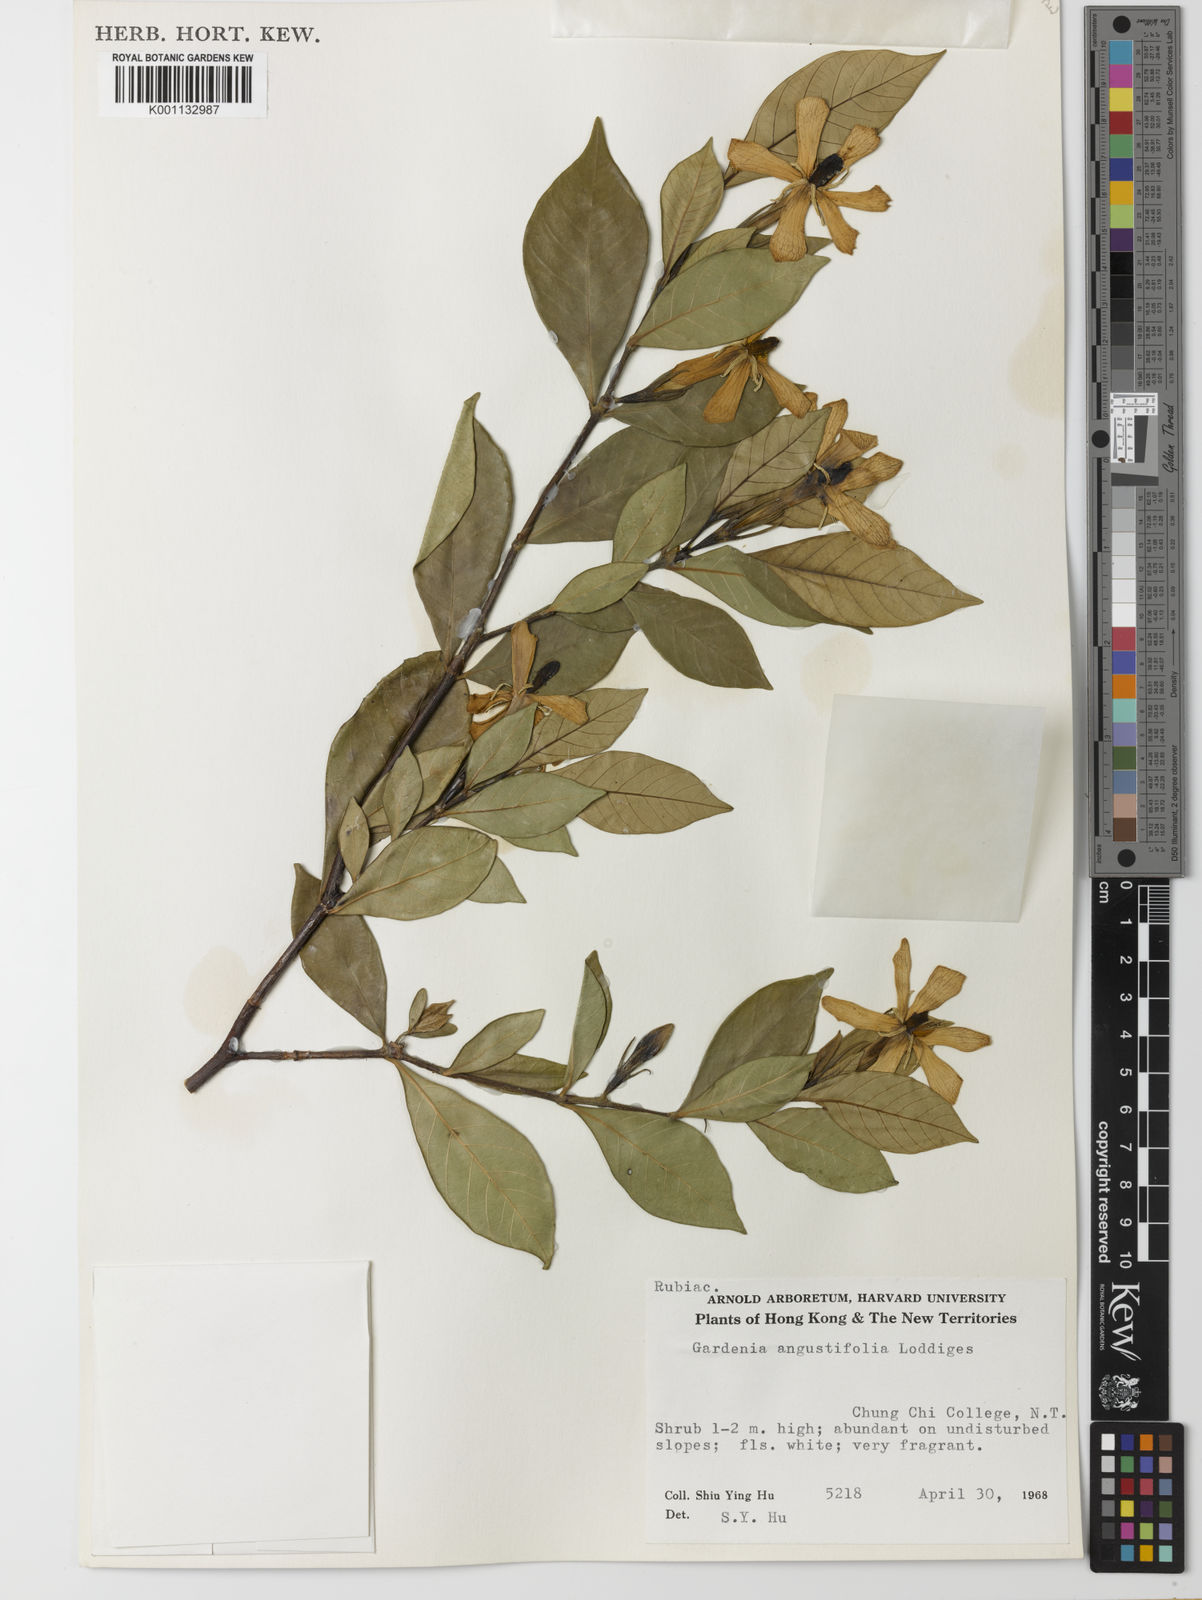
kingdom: Plantae
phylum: Tracheophyta
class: Magnoliopsida
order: Gentianales
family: Rubiaceae
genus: Gardenia
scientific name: Gardenia jasminoides
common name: Cape-jasmine
